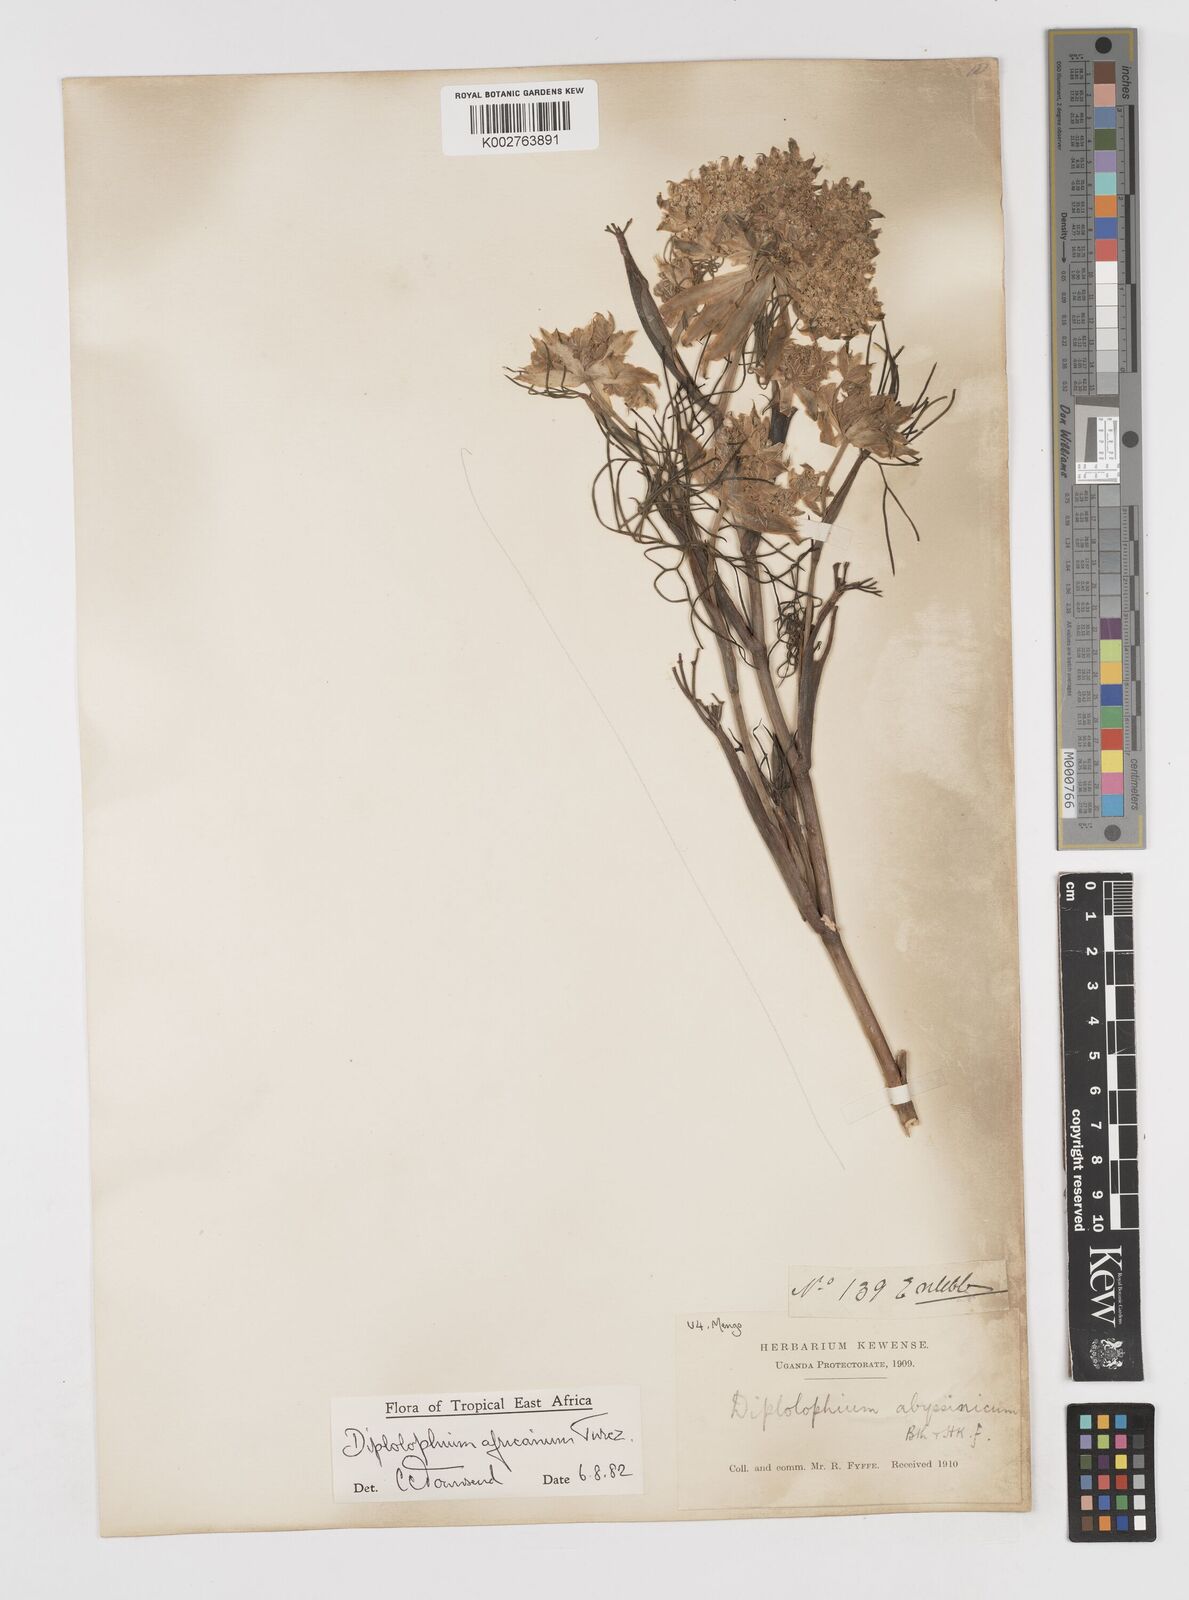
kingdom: Plantae
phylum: Tracheophyta
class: Magnoliopsida
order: Apiales
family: Apiaceae
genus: Diplolophium
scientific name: Diplolophium africanum
